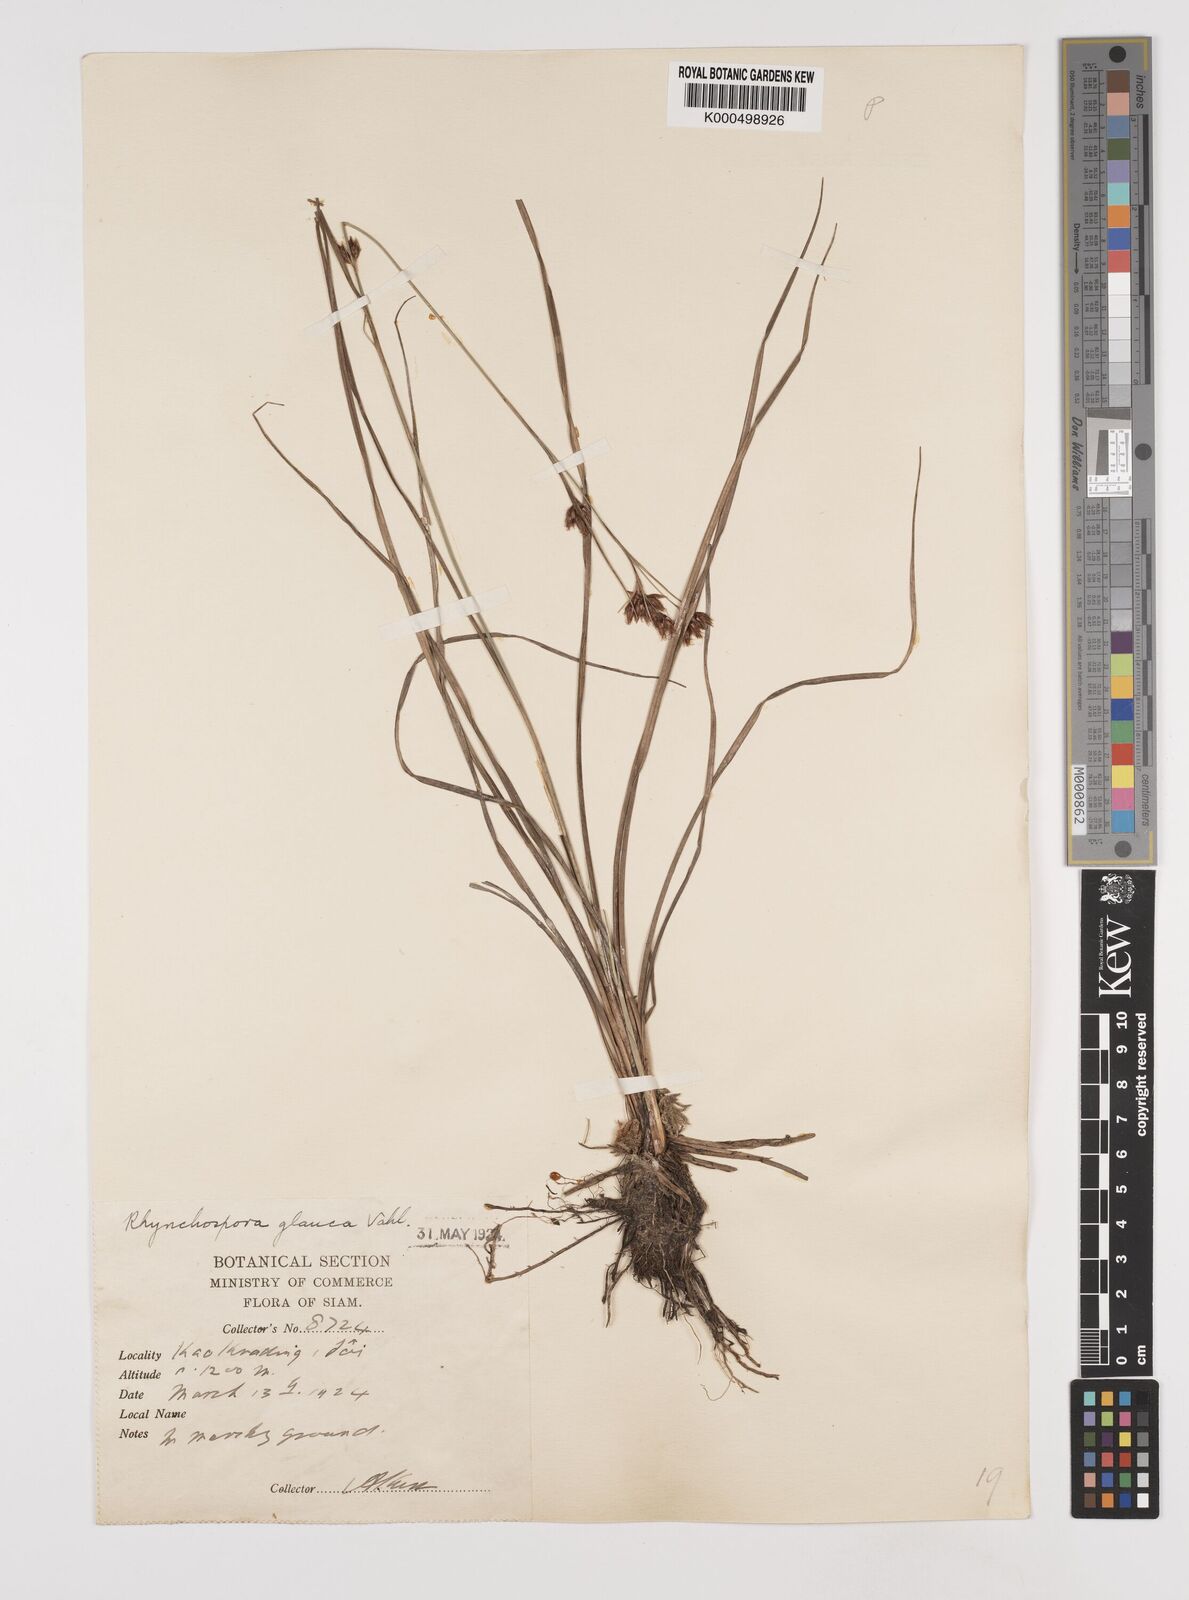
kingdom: Plantae
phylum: Tracheophyta
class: Liliopsida
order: Poales
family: Cyperaceae
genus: Rhynchospora
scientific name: Rhynchospora chinensis
